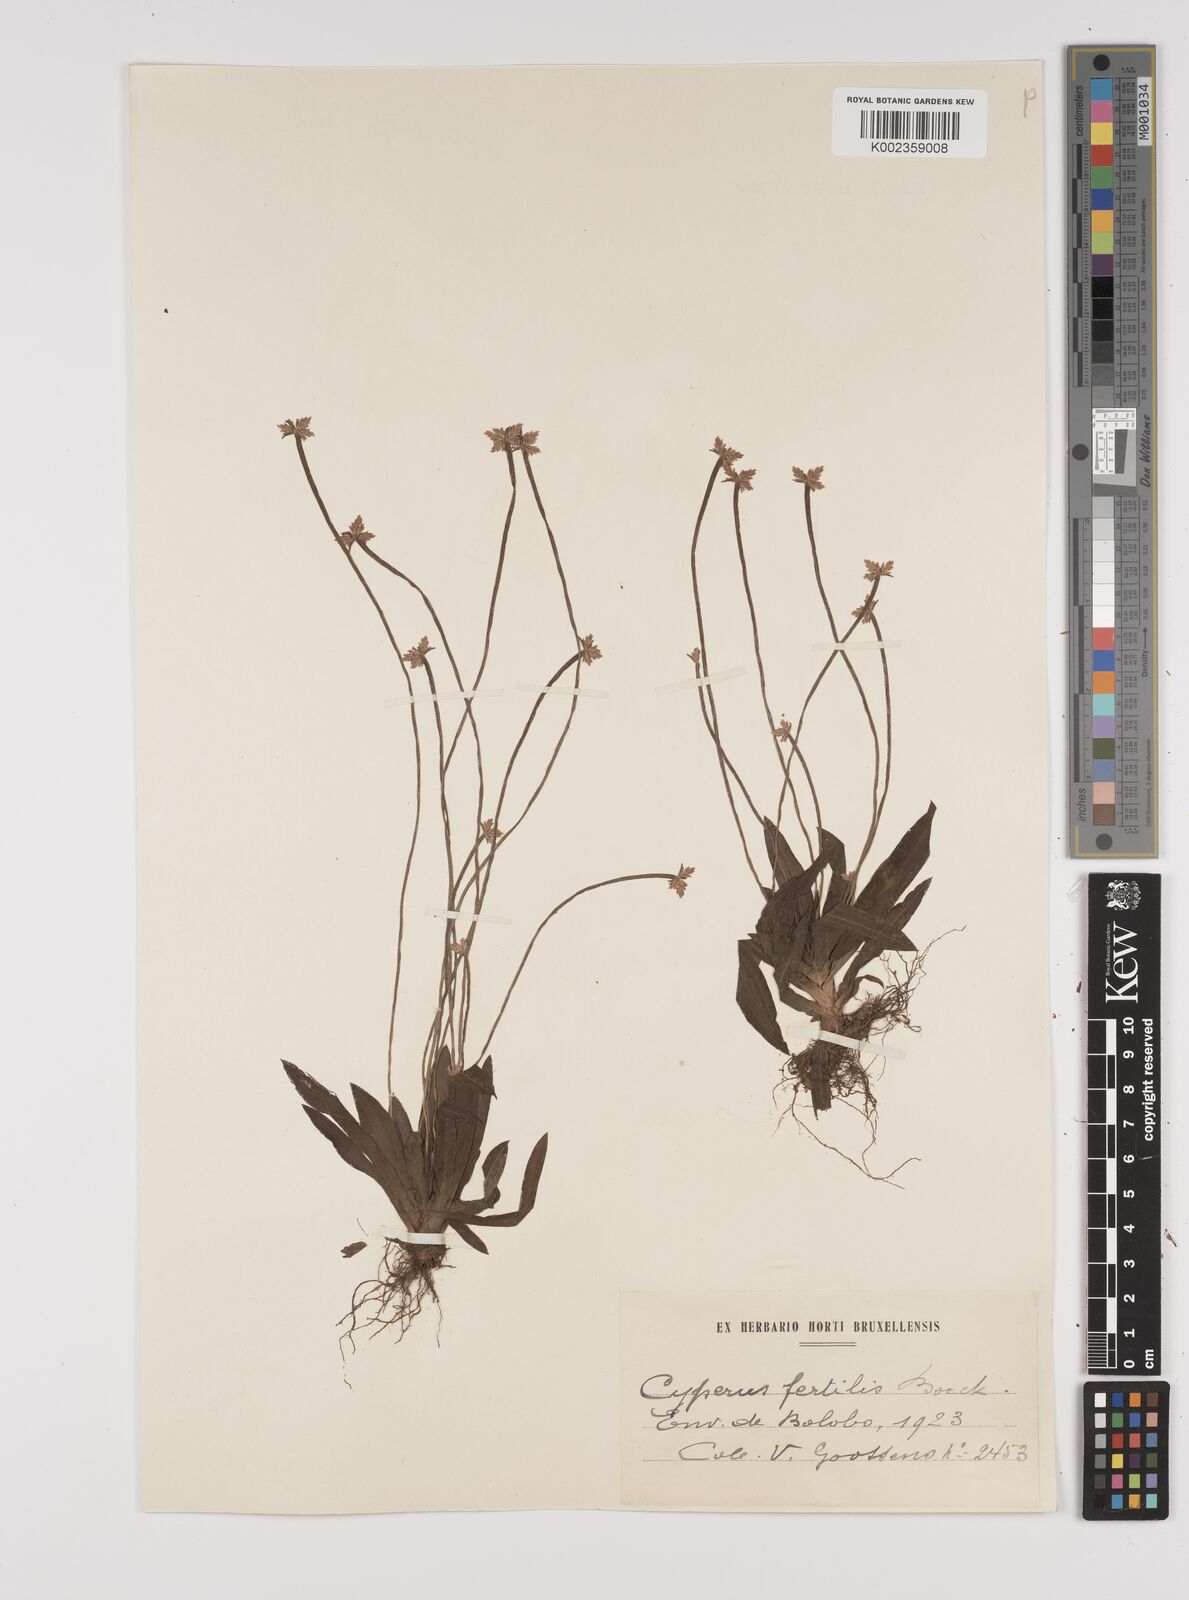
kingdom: Plantae
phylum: Tracheophyta
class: Liliopsida
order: Poales
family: Cyperaceae
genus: Cyperus
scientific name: Cyperus fertilis
